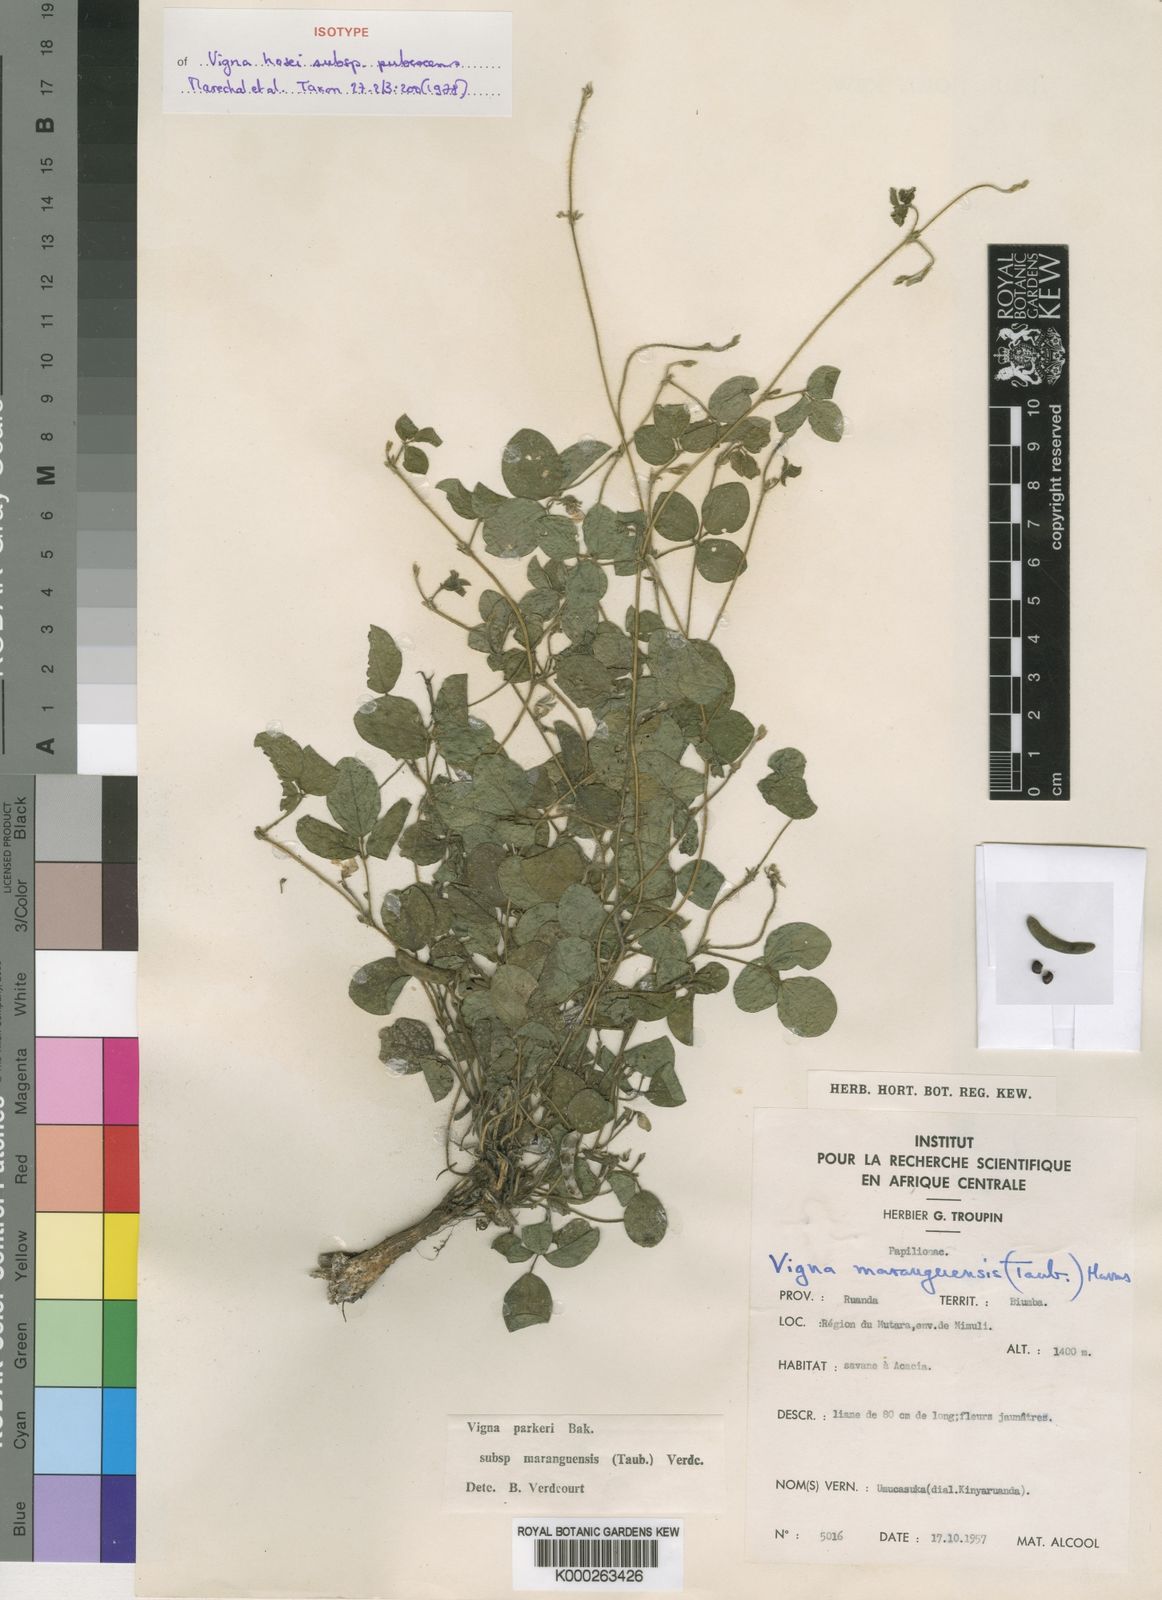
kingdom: Plantae
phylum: Tracheophyta
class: Magnoliopsida
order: Fabales
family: Fabaceae
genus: Vigna
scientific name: Vigna hosei
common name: Sarawak-bean
